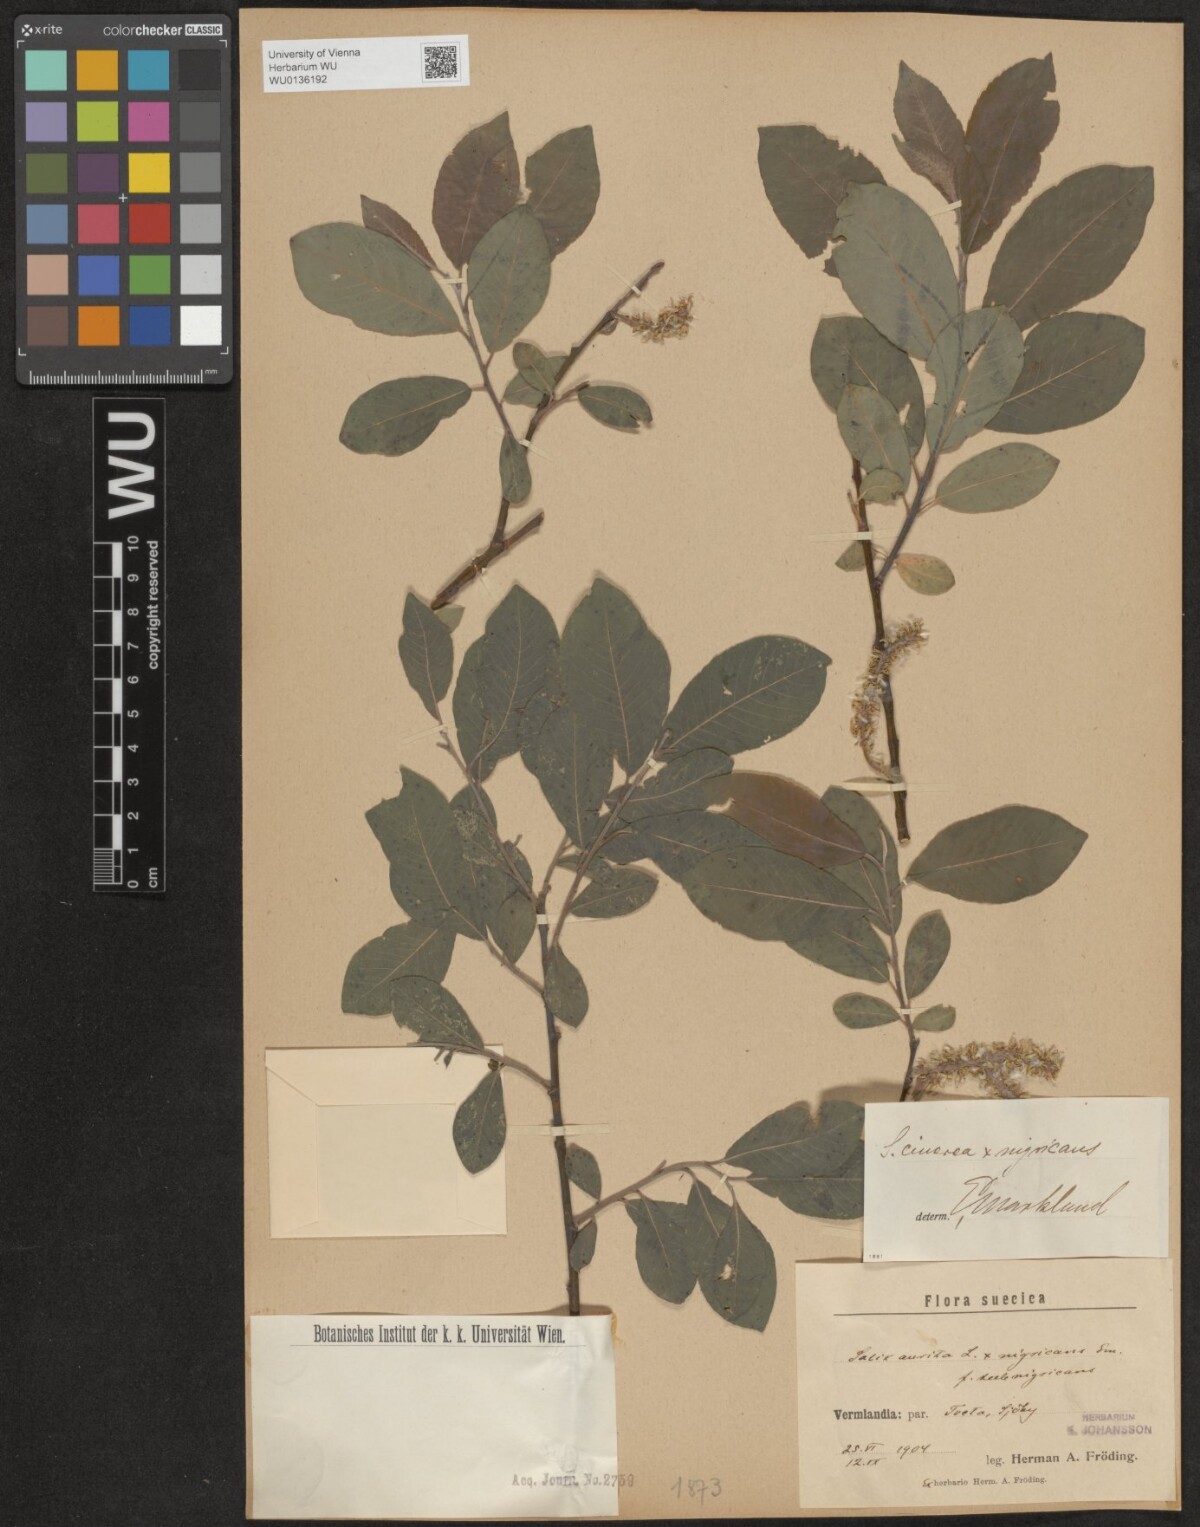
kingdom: Plantae
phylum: Tracheophyta
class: Magnoliopsida
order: Malpighiales
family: Salicaceae
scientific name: Salicaceae
